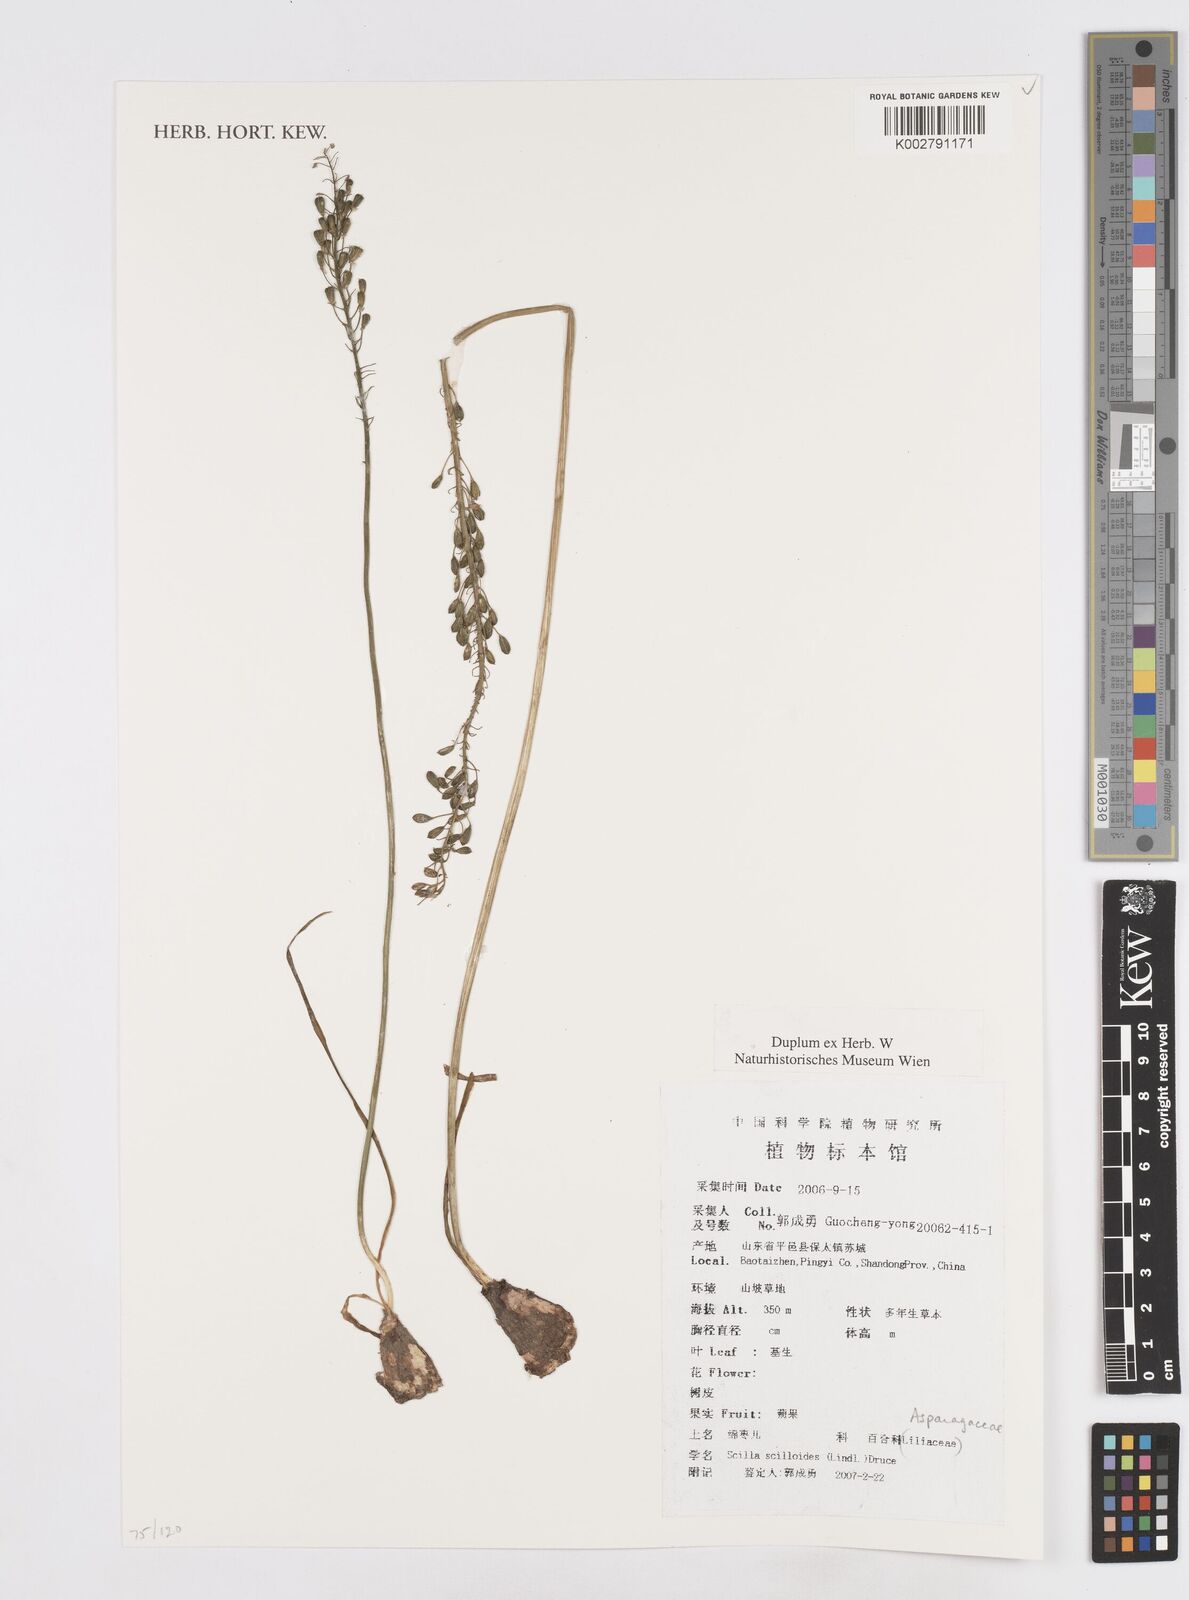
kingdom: Plantae
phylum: Tracheophyta
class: Liliopsida
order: Asparagales
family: Asparagaceae
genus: Barnardia
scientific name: Barnardia japonica
